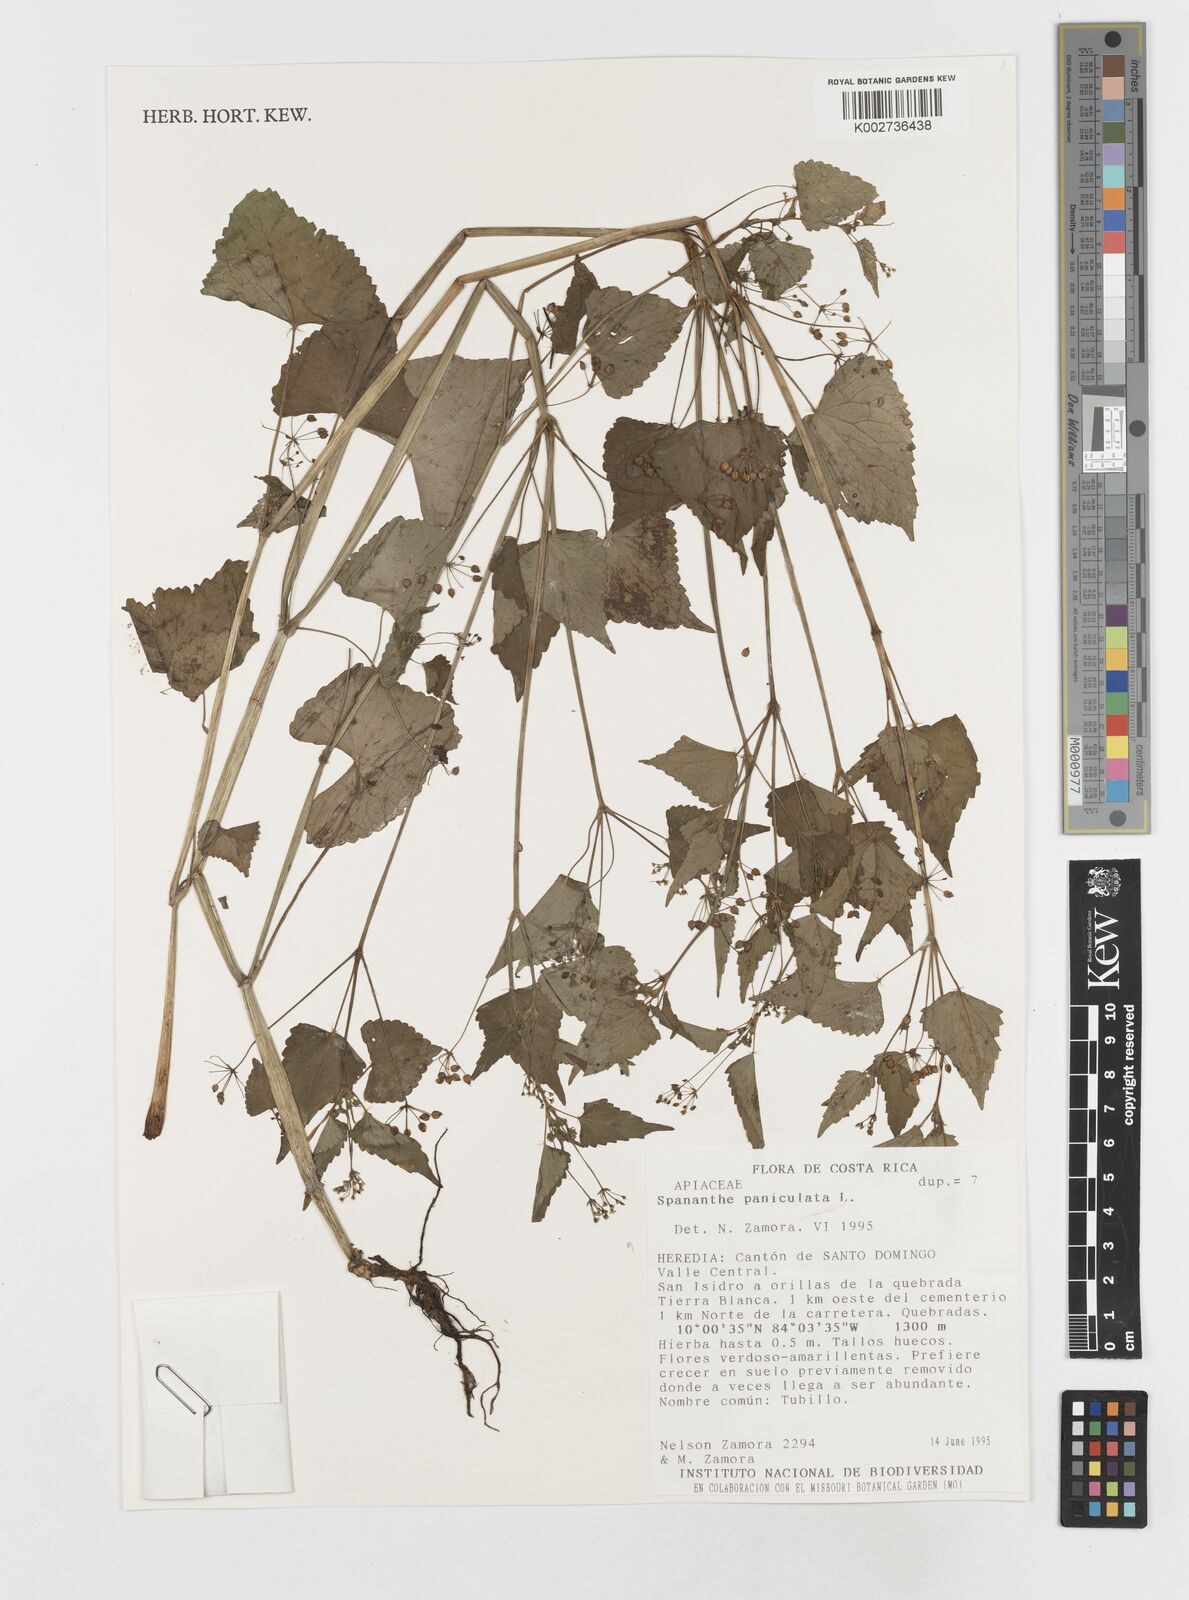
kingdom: Plantae
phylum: Tracheophyta
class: Magnoliopsida
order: Apiales
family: Apiaceae
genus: Spananthe
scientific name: Spananthe paniculata
